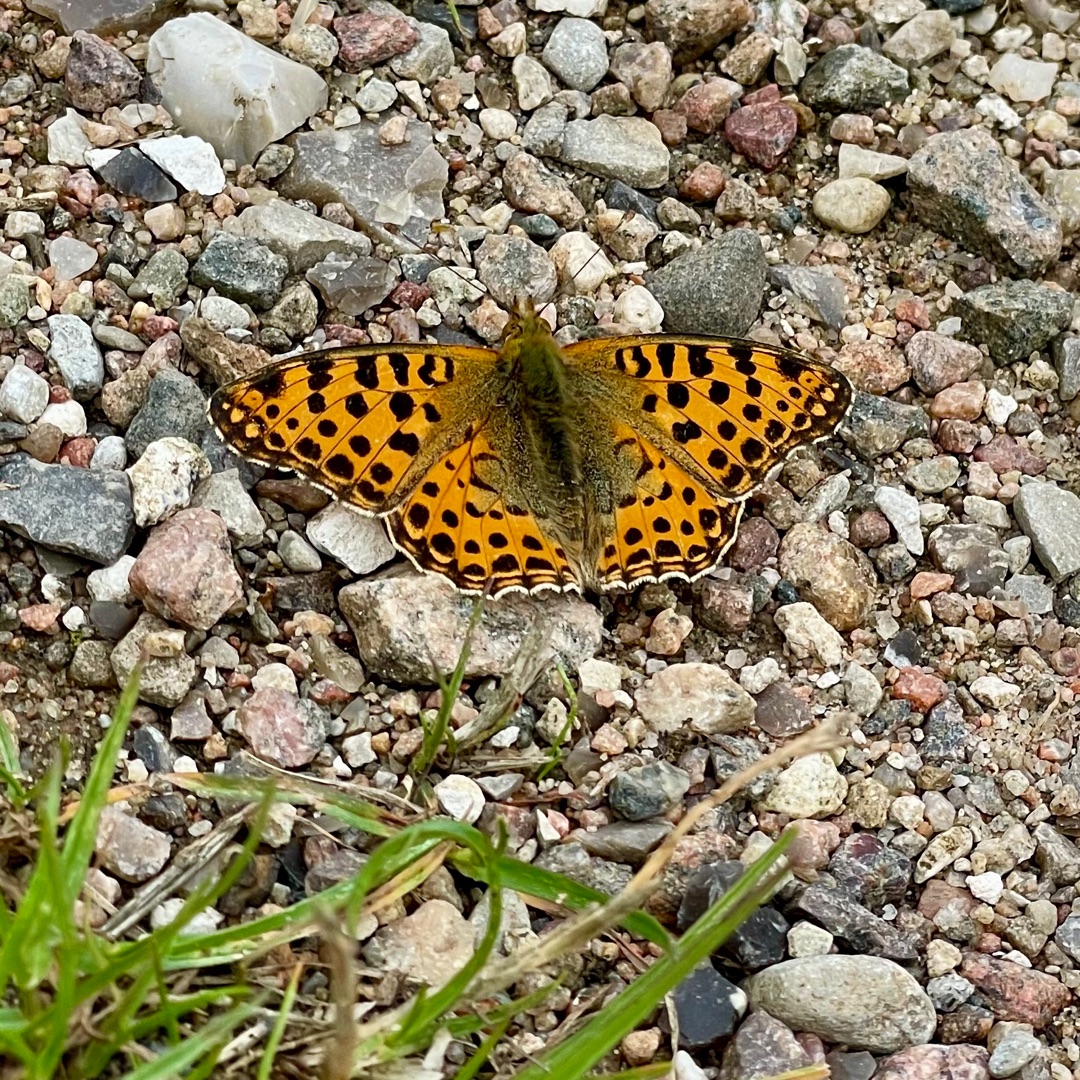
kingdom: Animalia
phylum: Arthropoda
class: Insecta
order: Lepidoptera
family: Nymphalidae
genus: Issoria
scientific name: Issoria lathonia
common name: Storplettet perlemorsommerfugl
